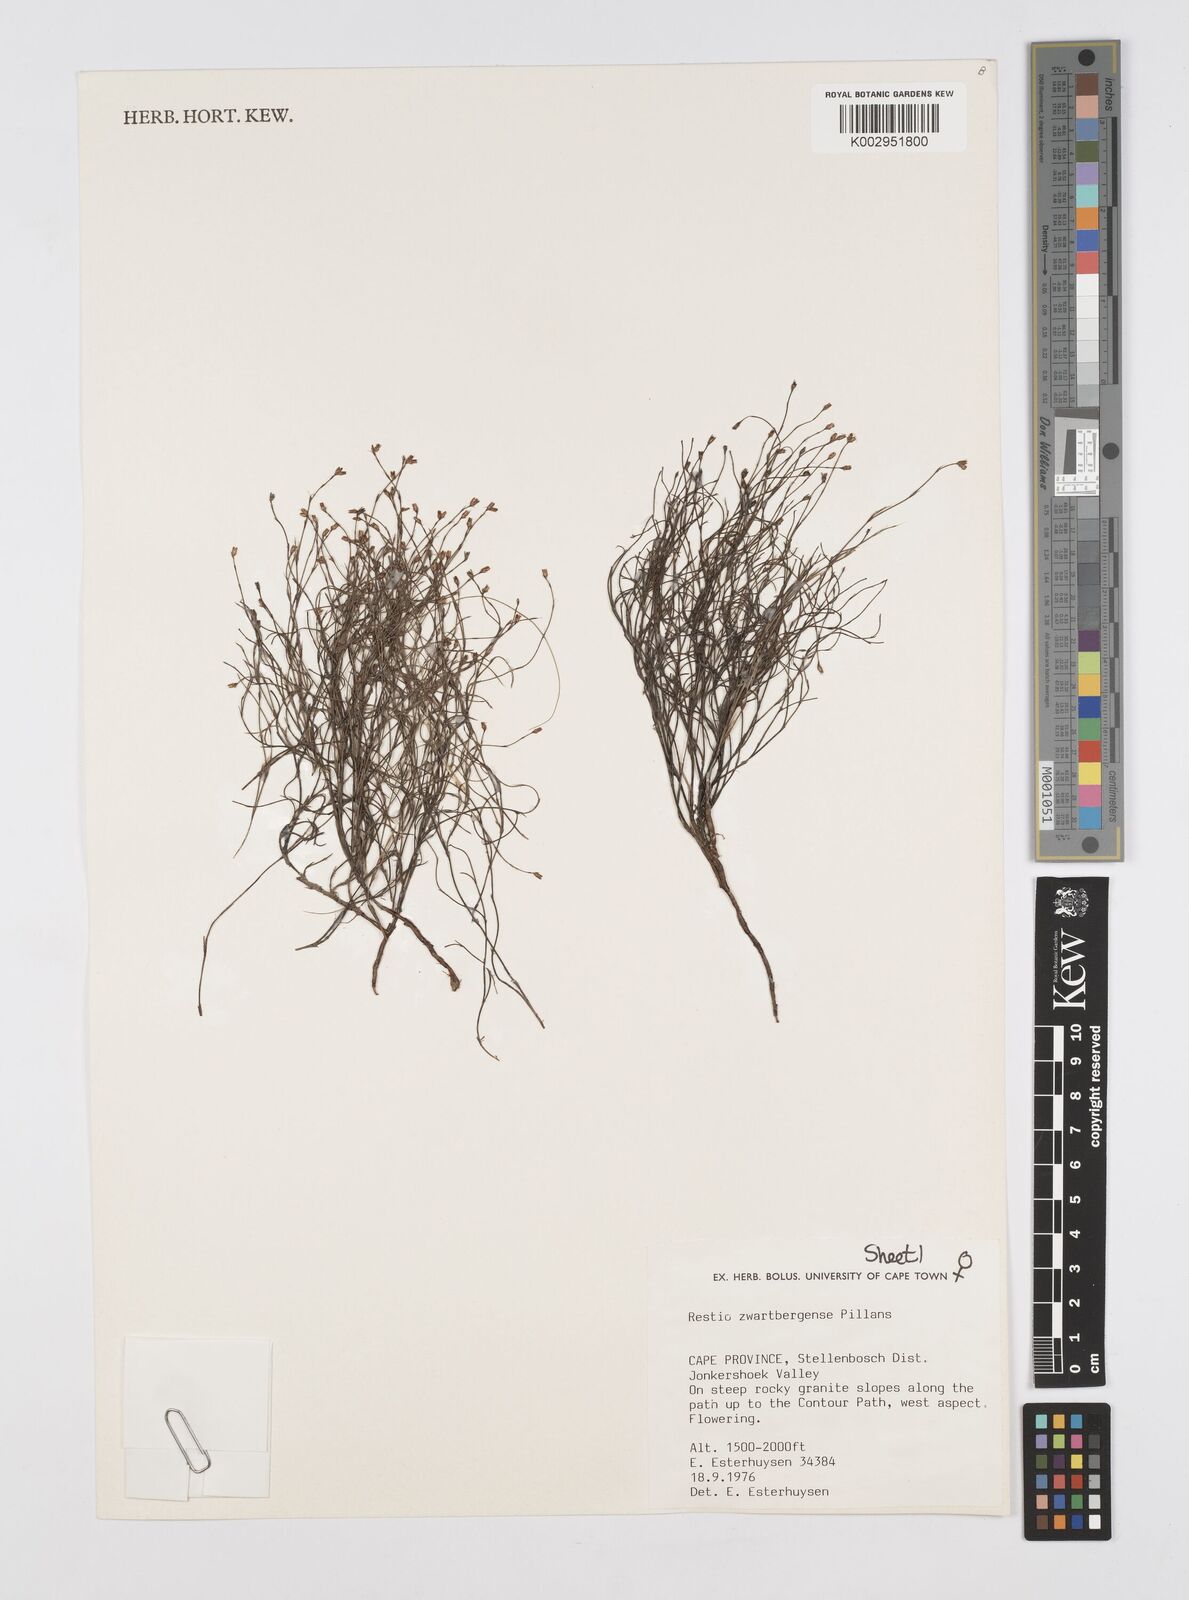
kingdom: Plantae
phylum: Tracheophyta
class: Liliopsida
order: Poales
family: Restionaceae
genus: Restio
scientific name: Restio zwartbergensis
